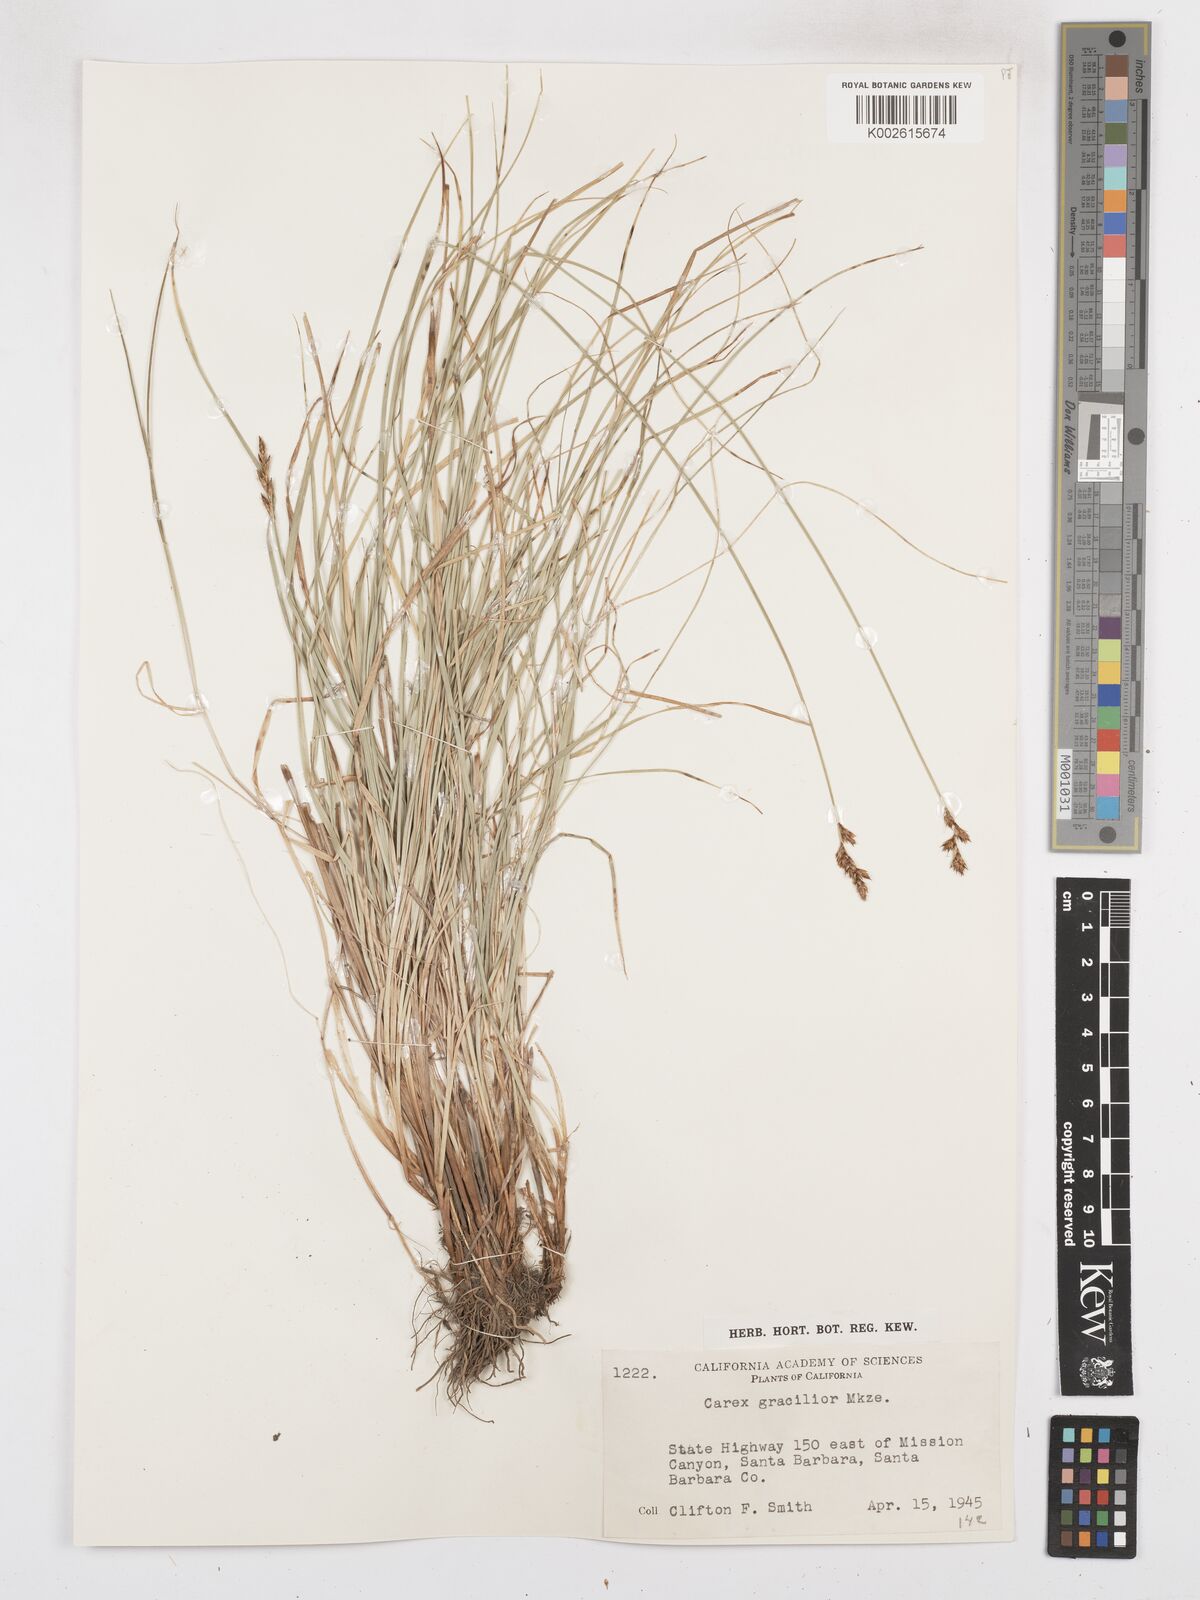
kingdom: Plantae
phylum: Tracheophyta
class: Liliopsida
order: Poales
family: Cyperaceae
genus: Carex
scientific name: Carex gracilior
